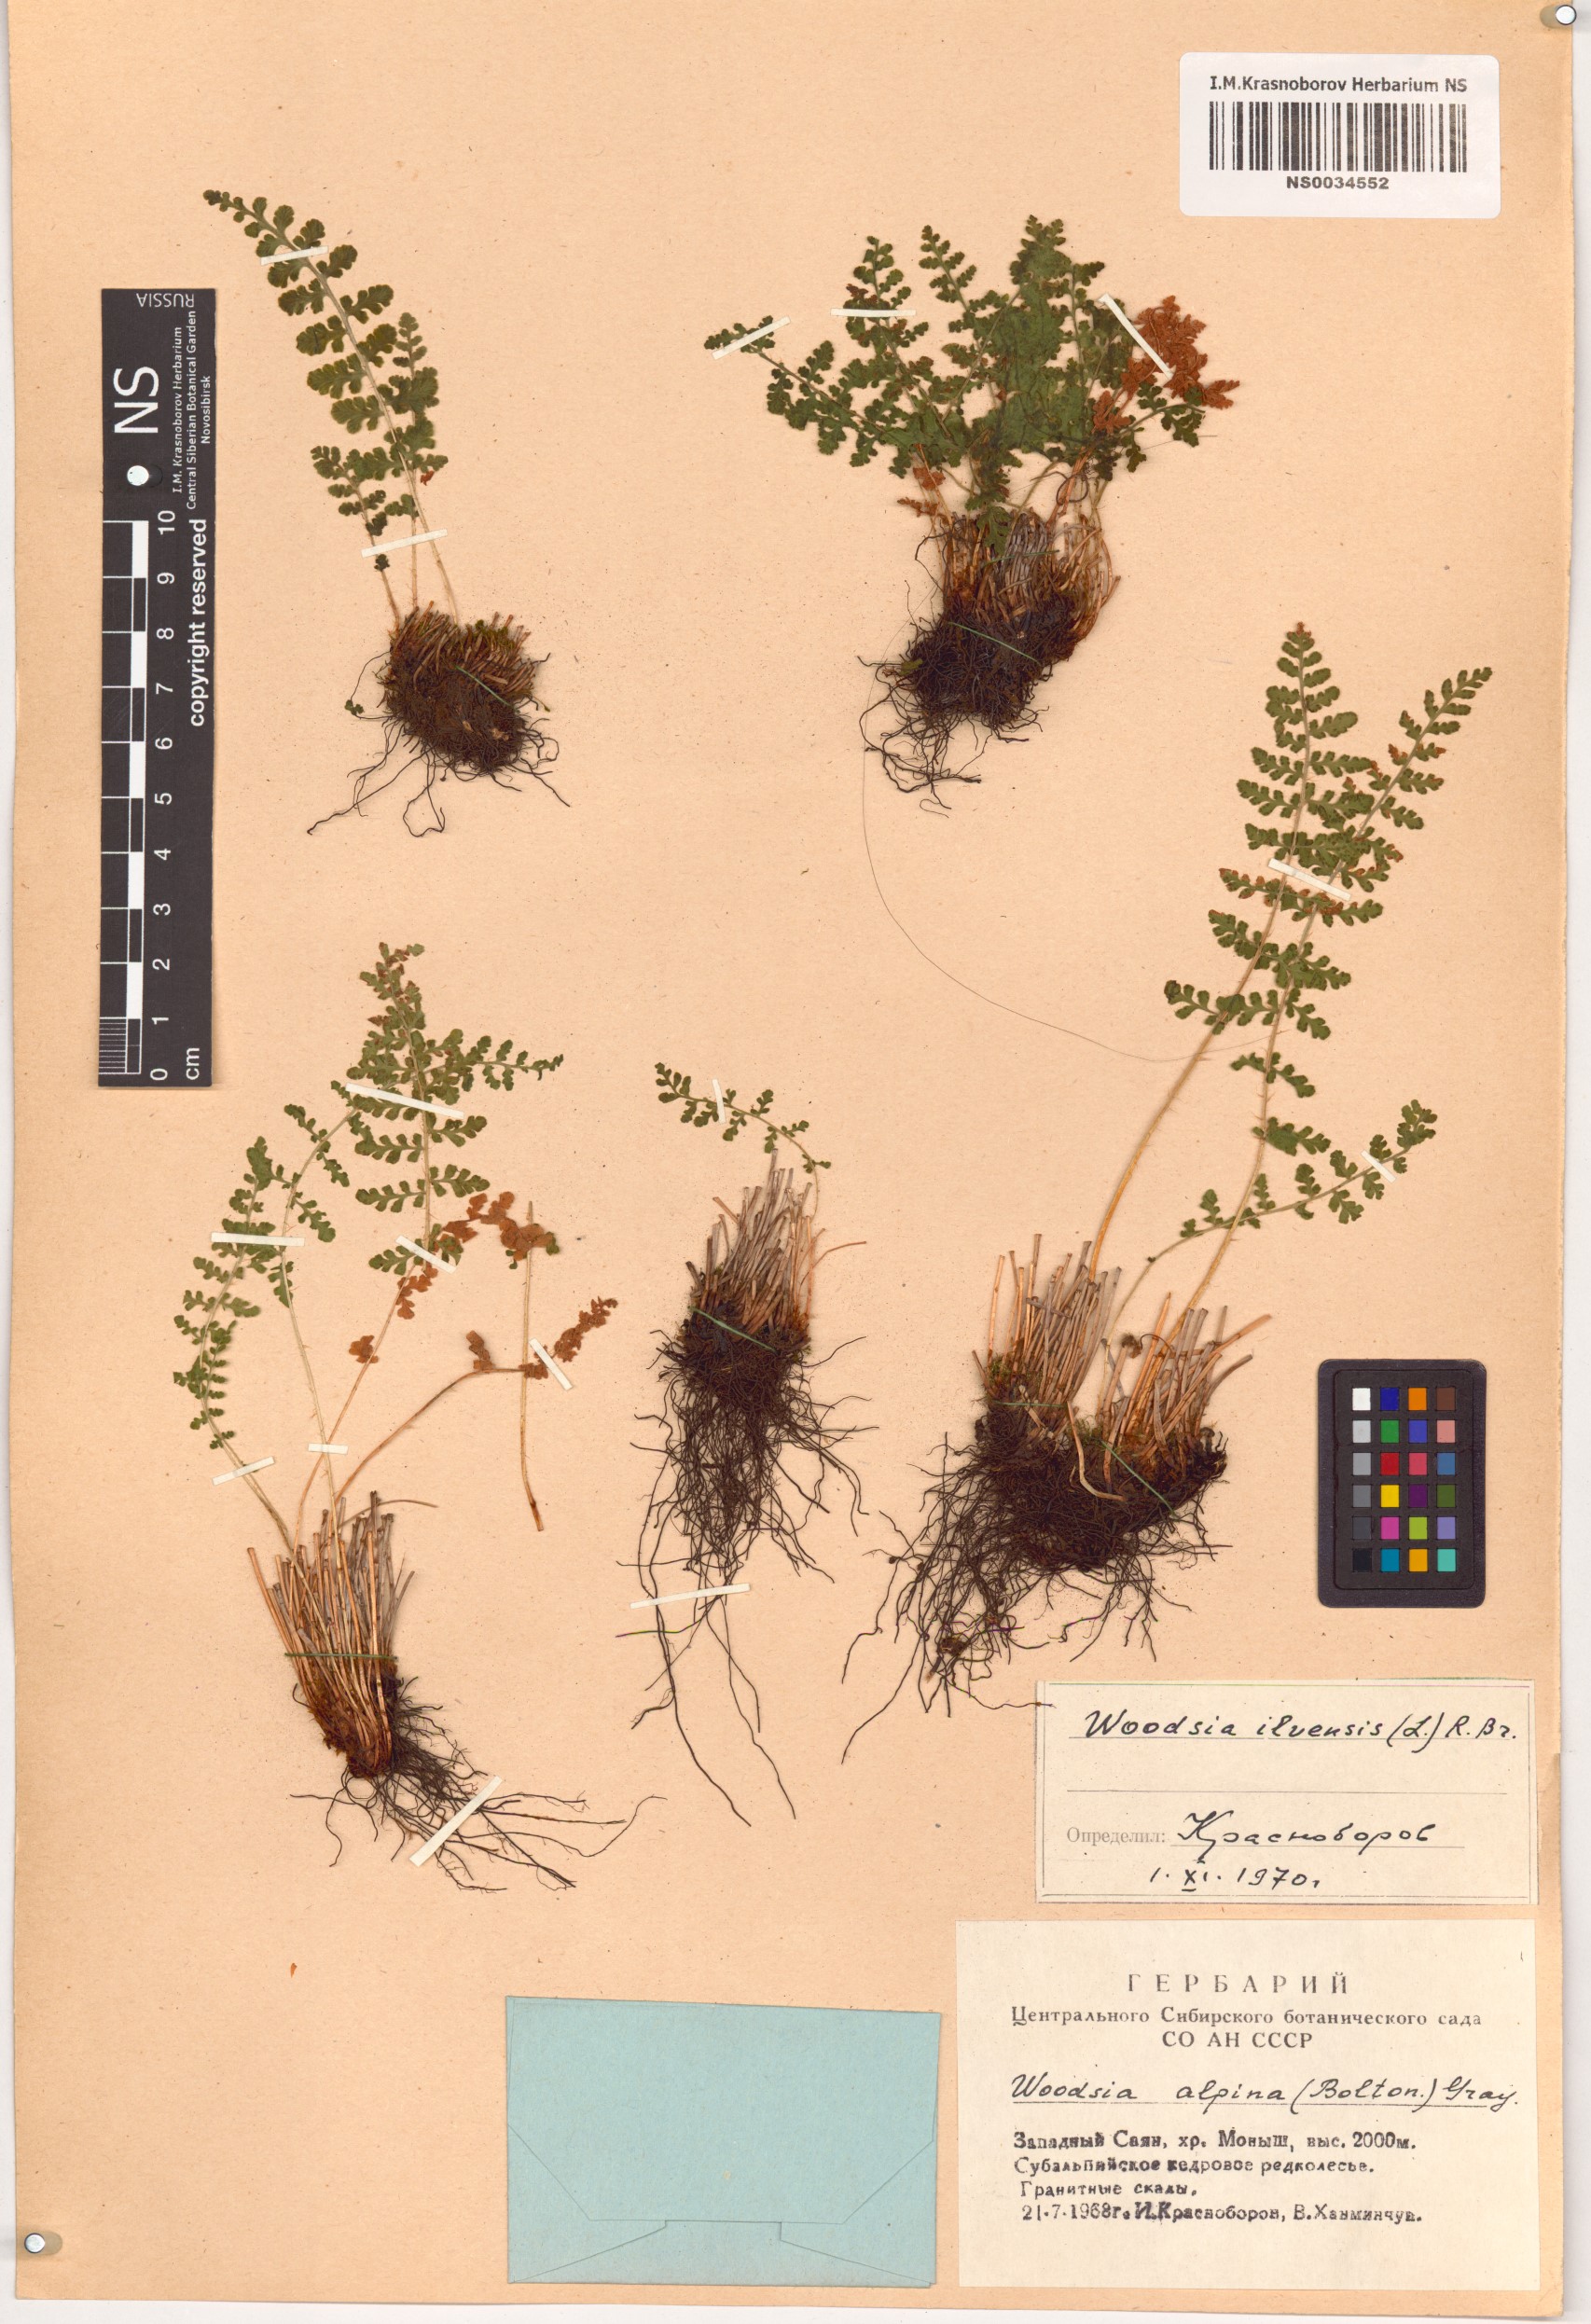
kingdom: Plantae
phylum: Tracheophyta
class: Polypodiopsida
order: Polypodiales
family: Woodsiaceae
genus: Woodsia
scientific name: Woodsia ilvensis
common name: Fragrant woodsia
